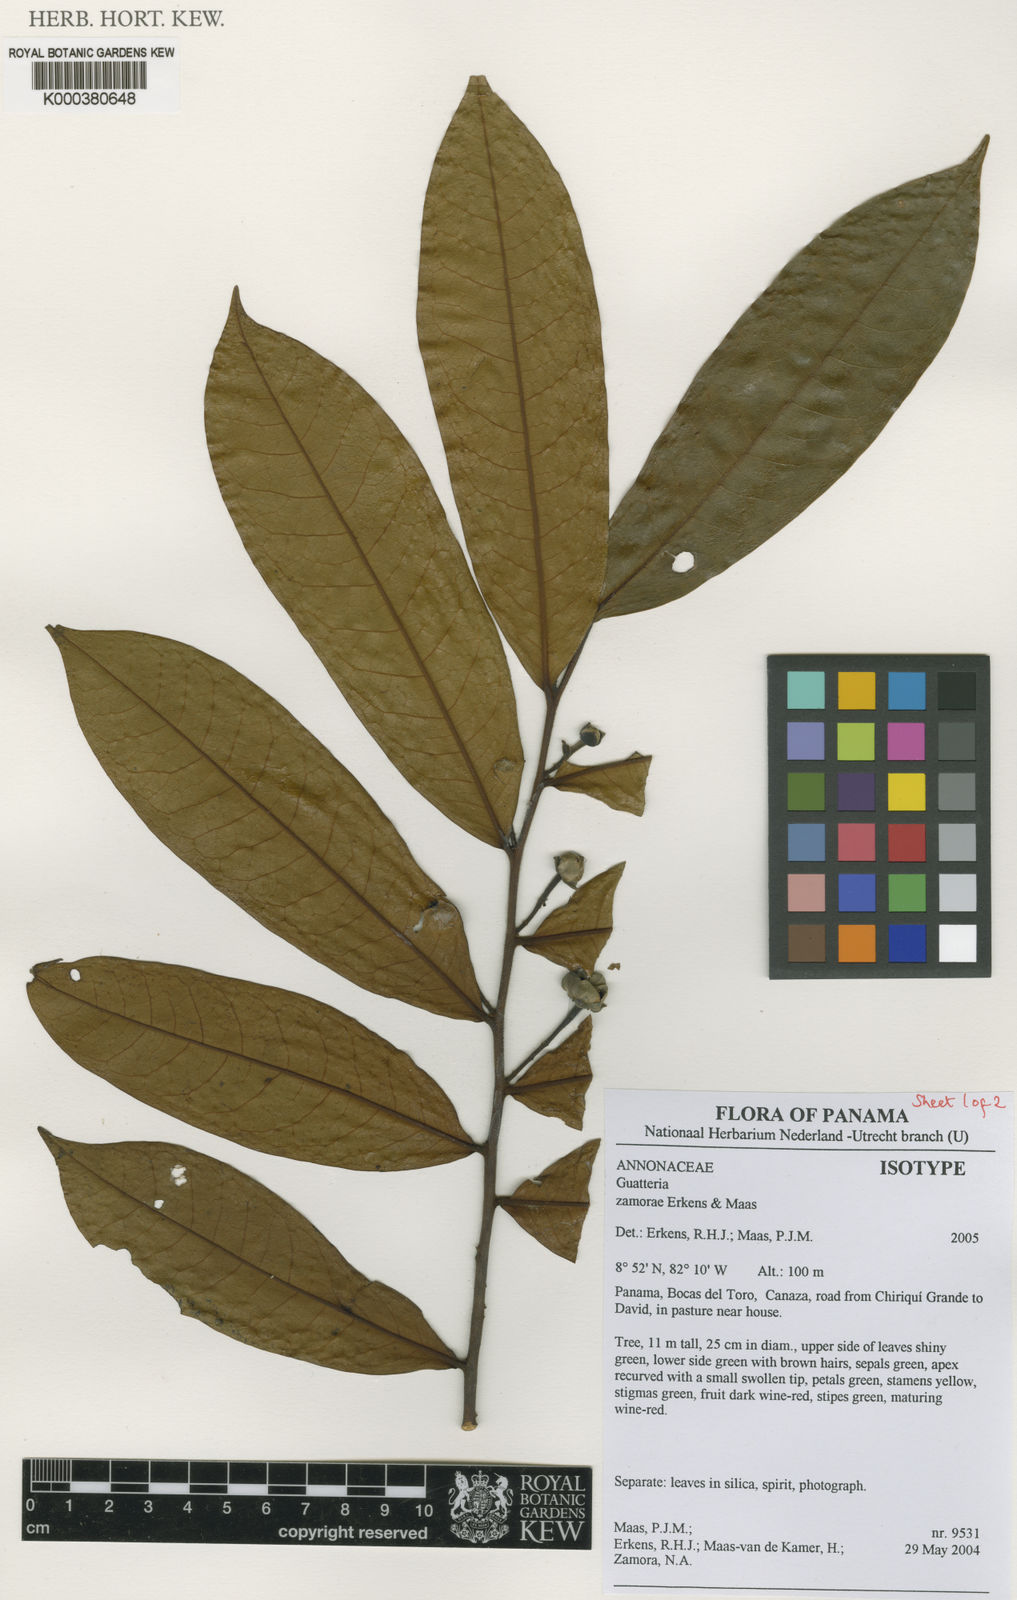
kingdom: Plantae
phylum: Tracheophyta
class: Magnoliopsida
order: Magnoliales
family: Annonaceae
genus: Guatteria
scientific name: Guatteria zamorae
